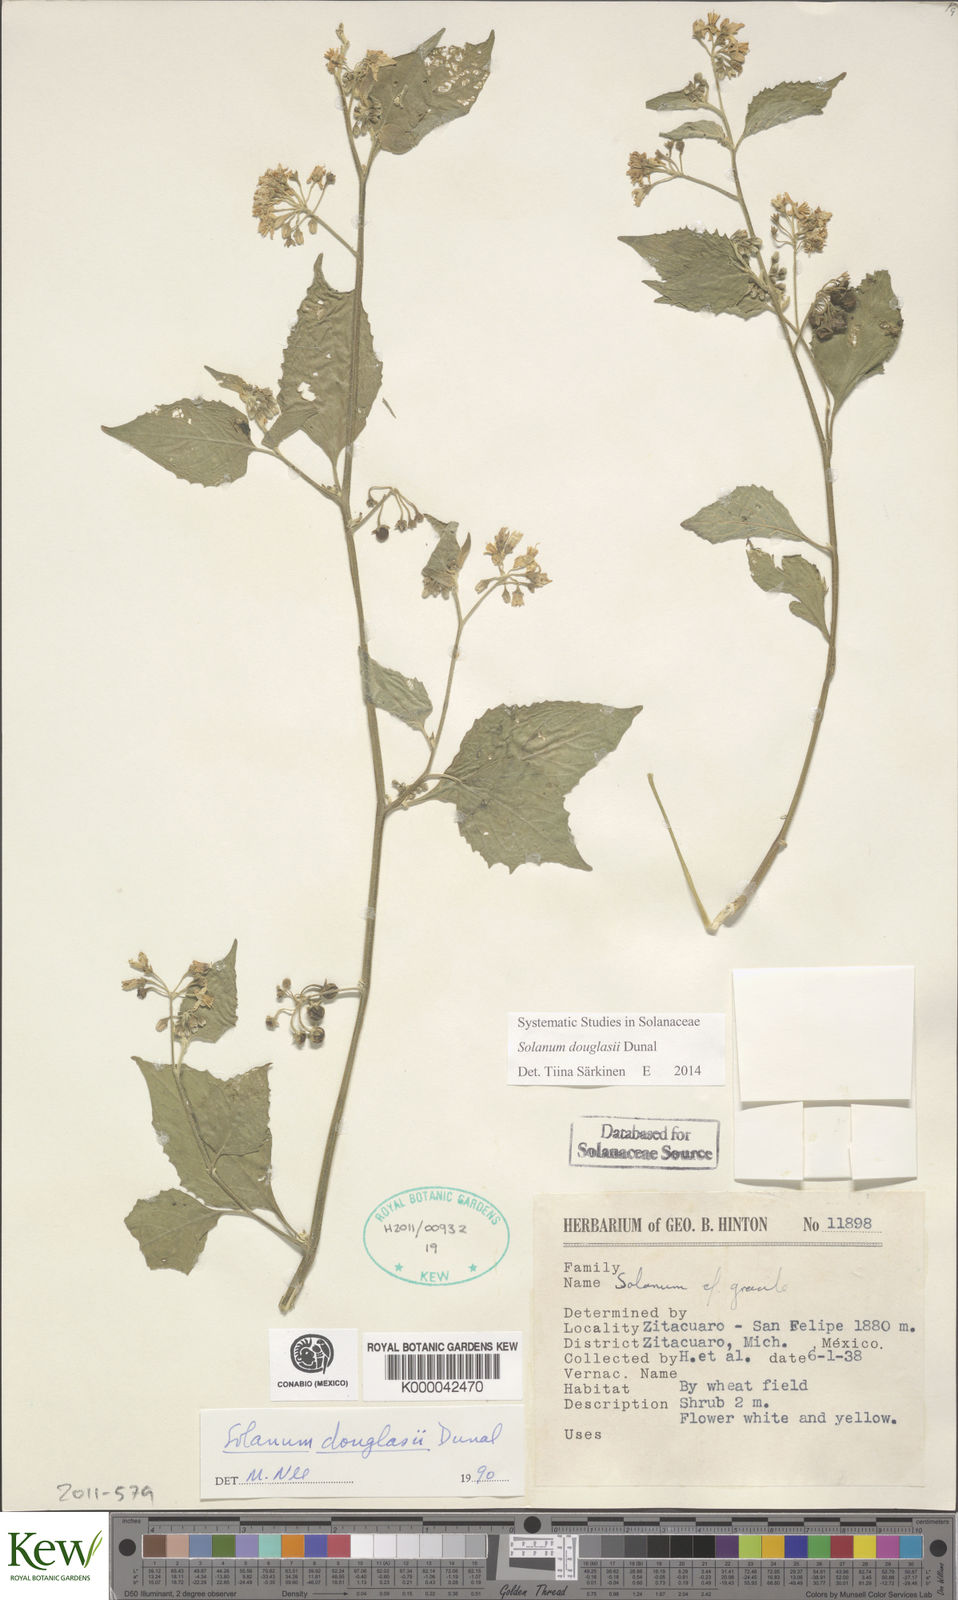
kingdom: Plantae
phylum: Tracheophyta
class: Magnoliopsida
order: Solanales
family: Solanaceae
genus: Solanum
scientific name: Solanum douglasii
